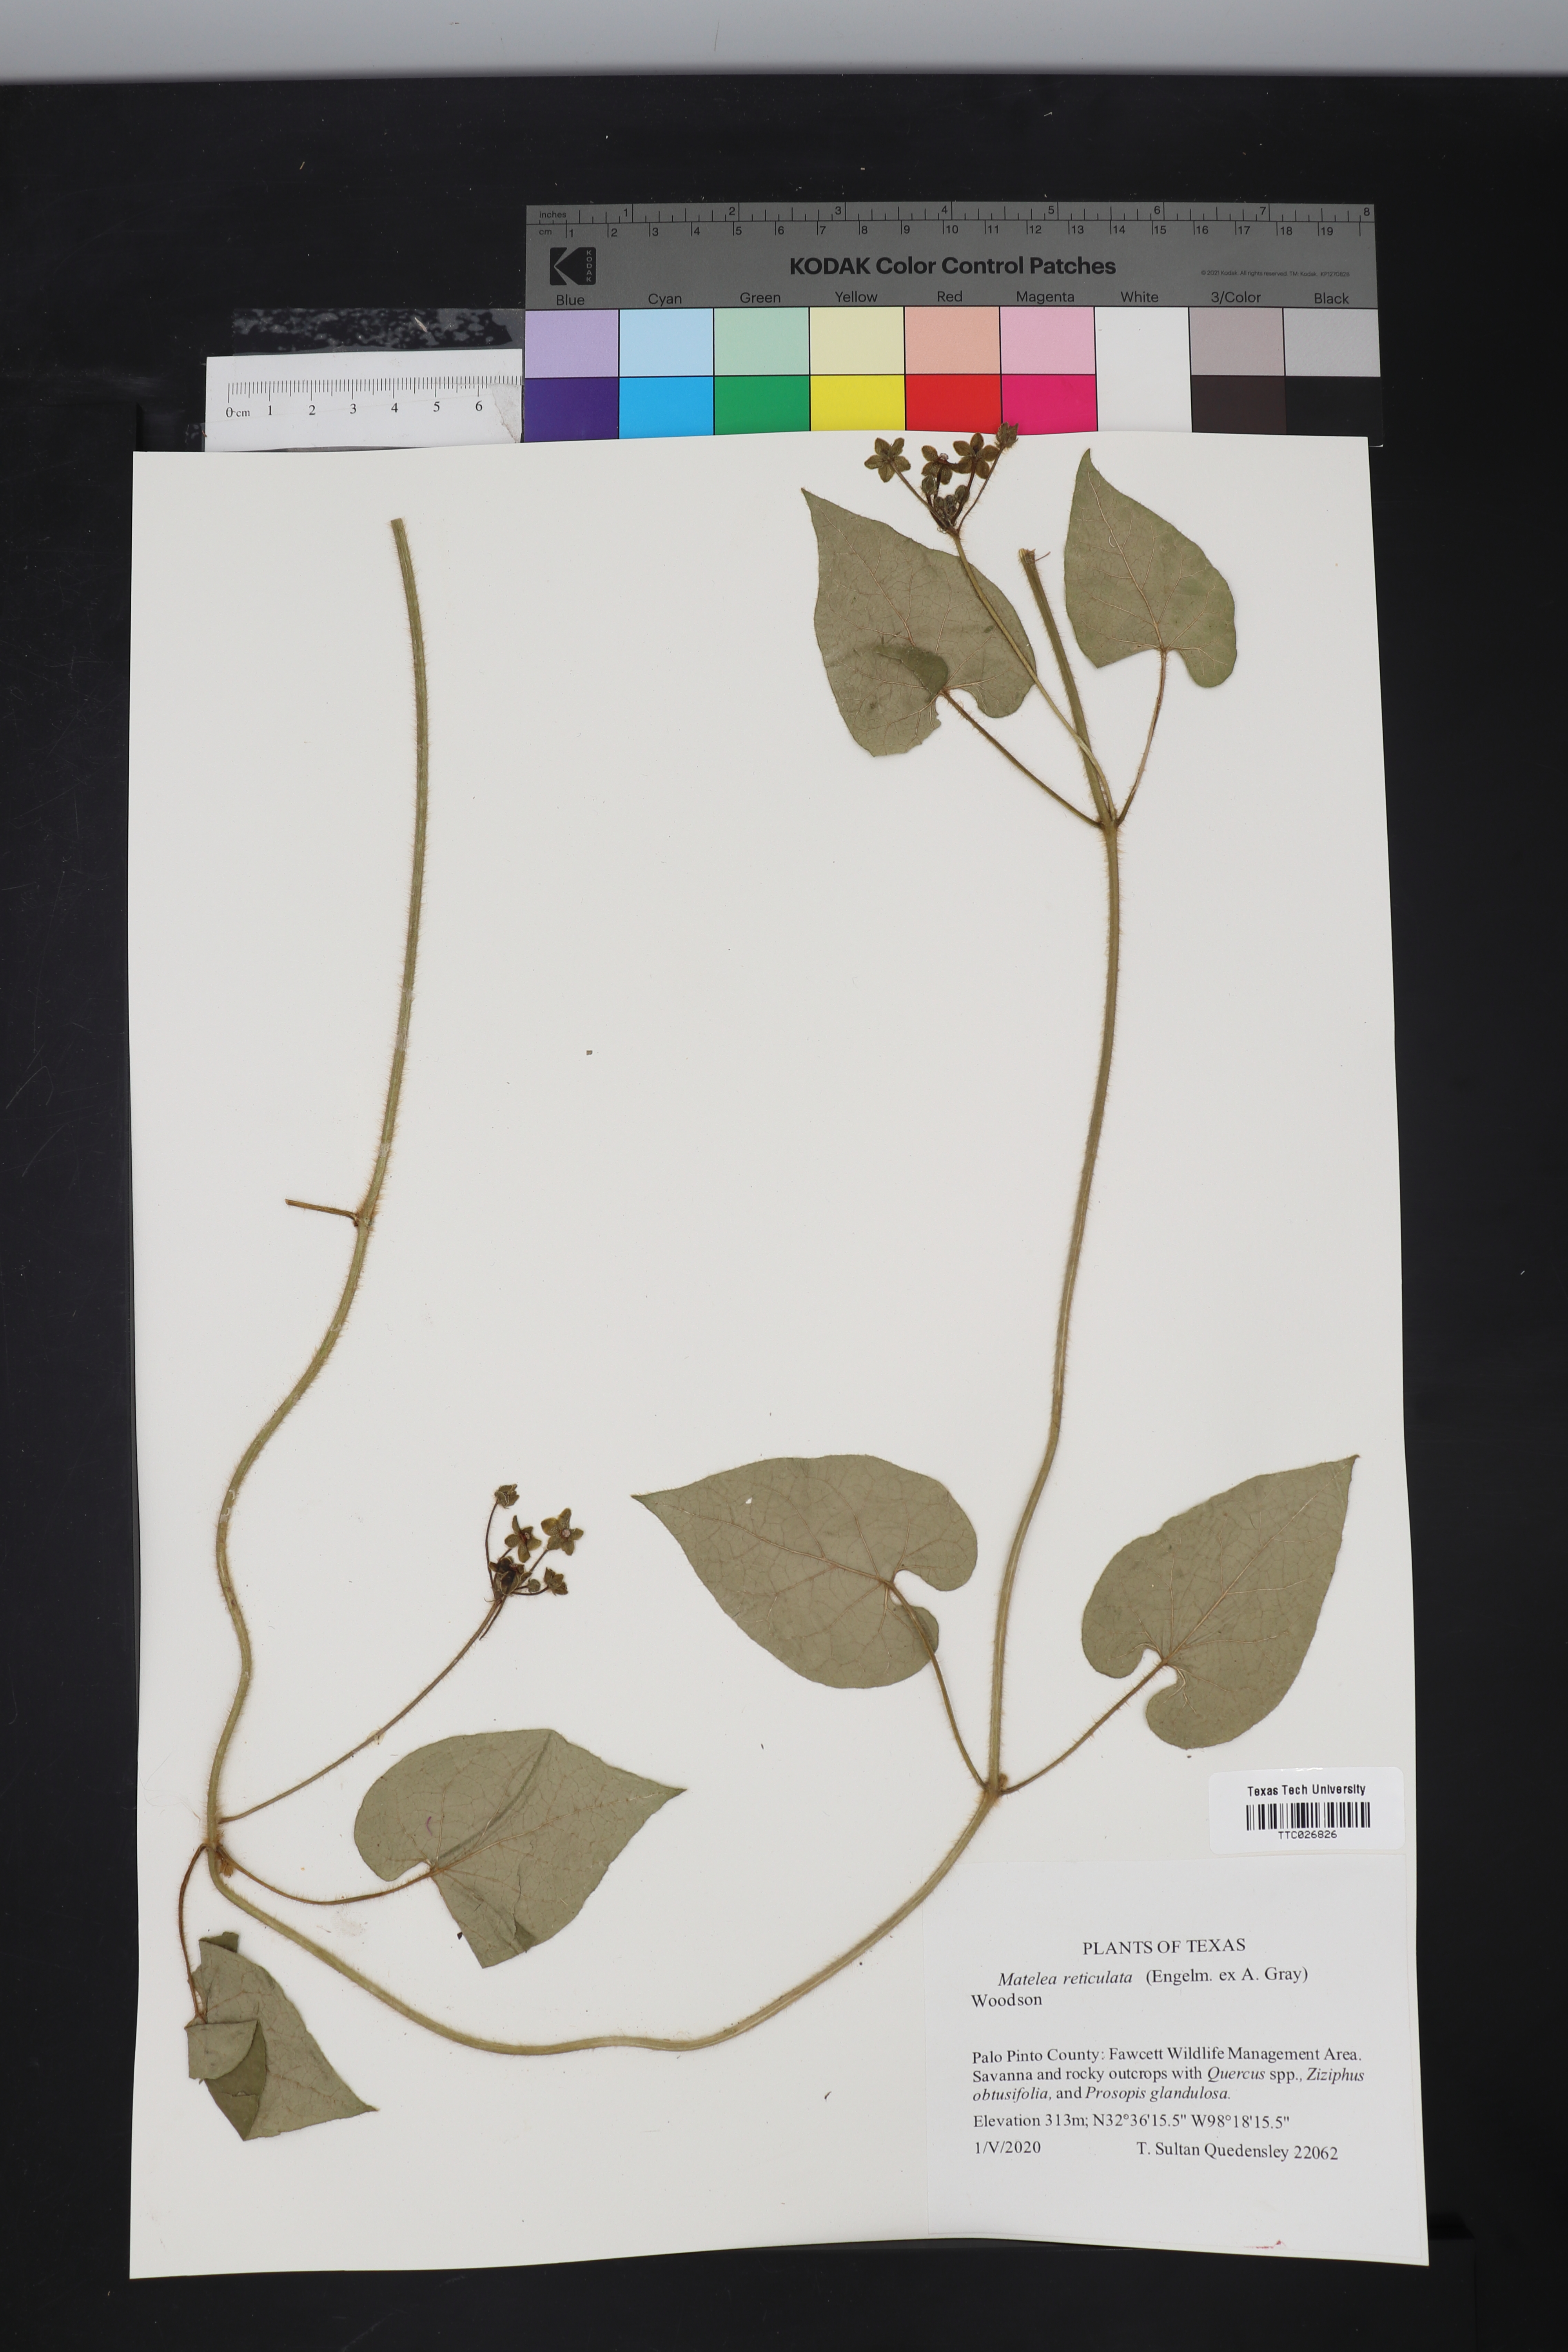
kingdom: Plantae
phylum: Tracheophyta
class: Magnoliopsida
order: Gentianales
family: Apocynaceae
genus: Dictyanthus
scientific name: Dictyanthus reticulatus
